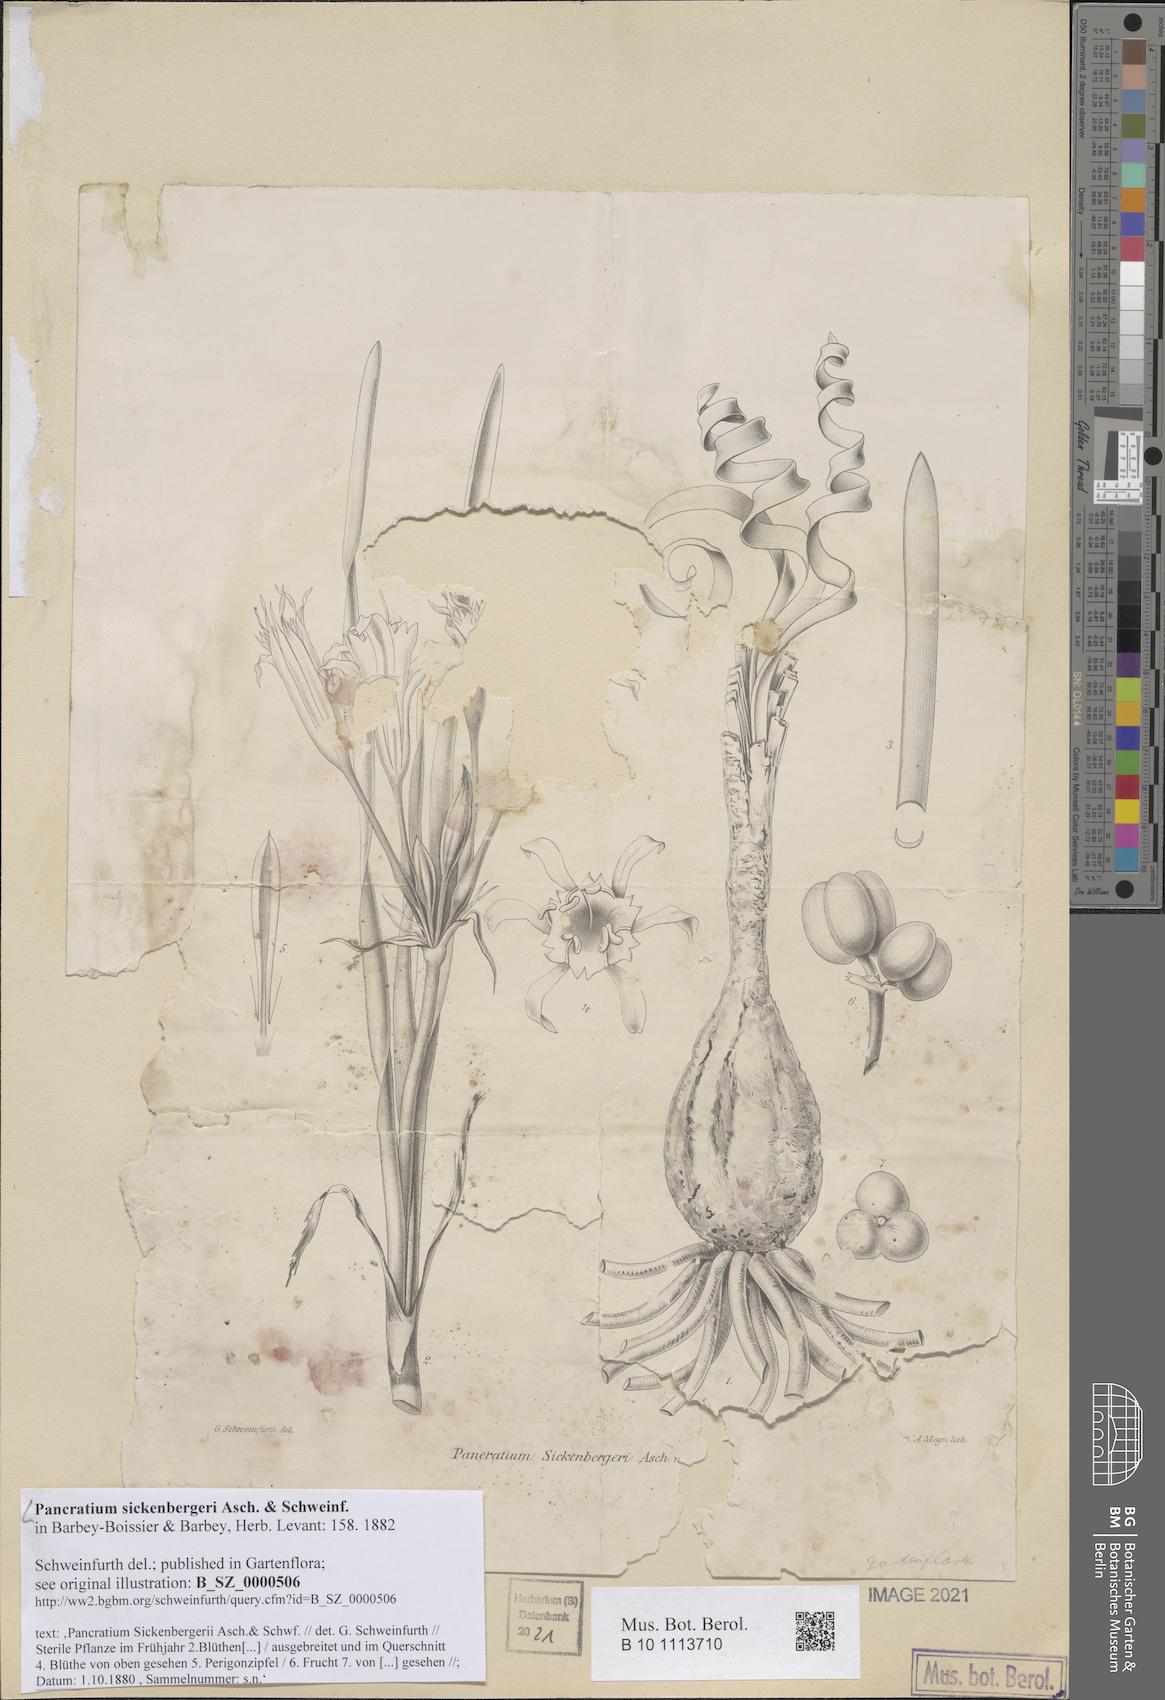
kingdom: Plantae
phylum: Tracheophyta
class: Liliopsida
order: Asparagales
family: Amaryllidaceae
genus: Pancratium
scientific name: Pancratium sickenbergeri
